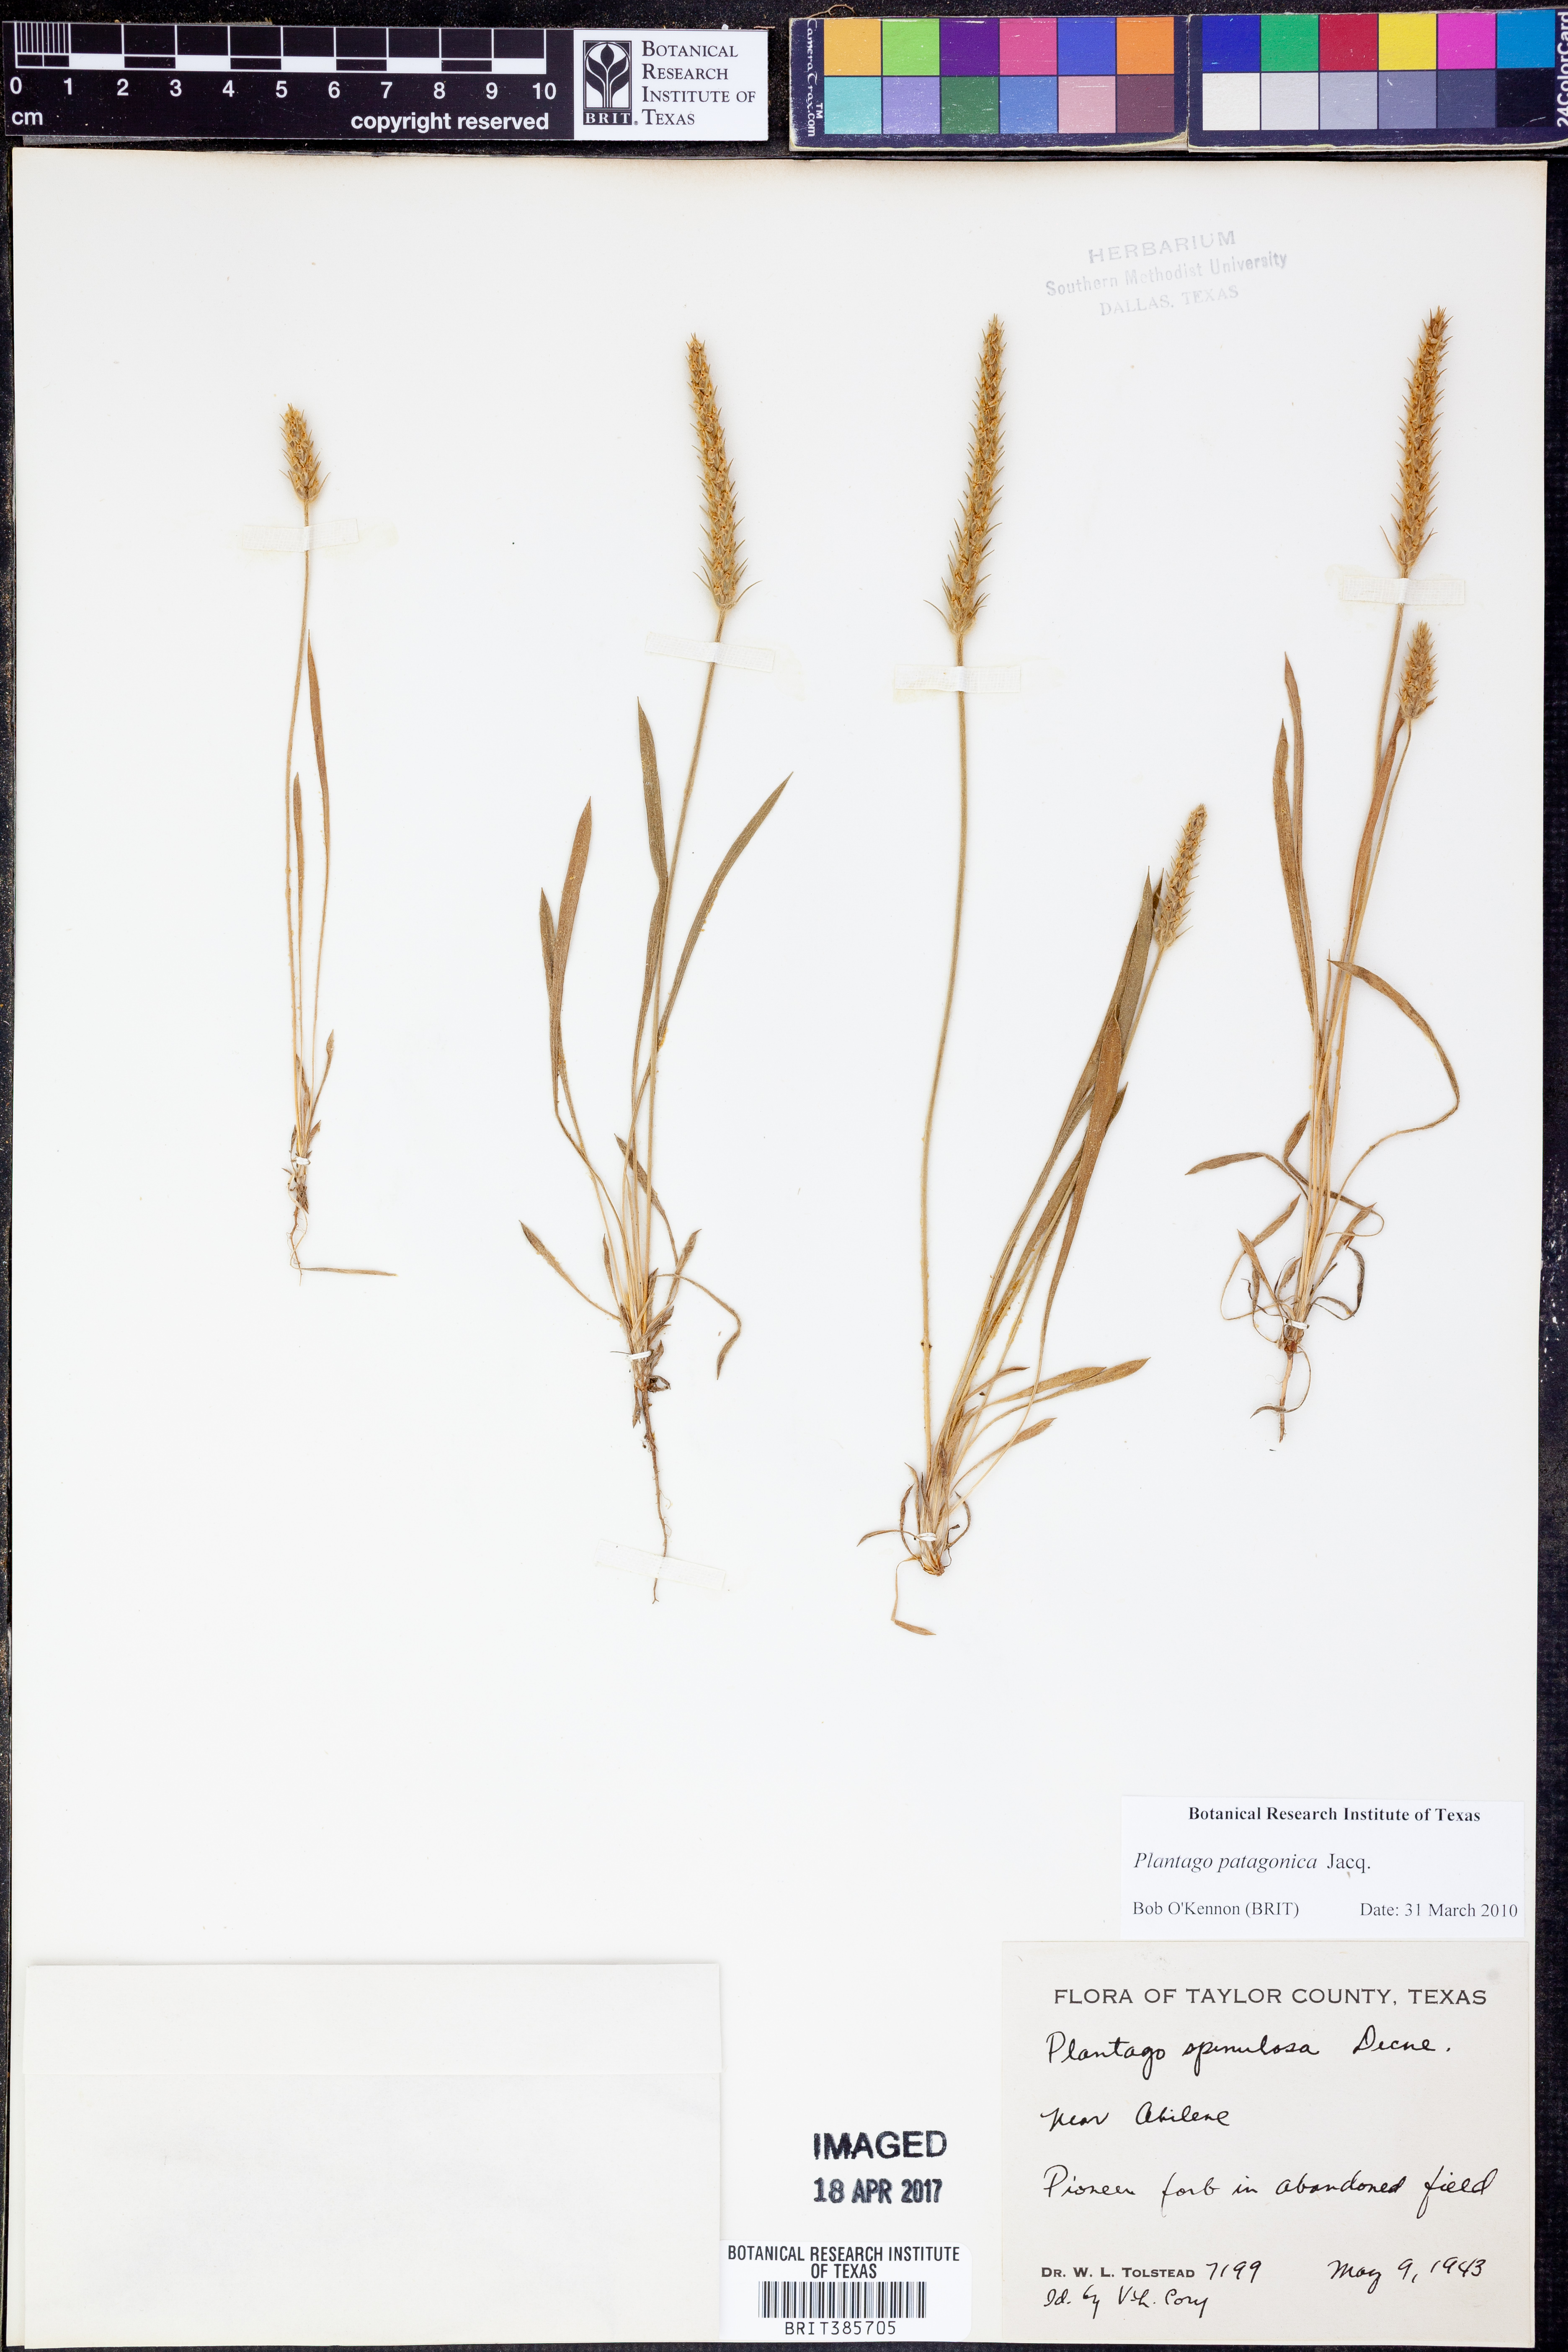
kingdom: Plantae
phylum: Tracheophyta
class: Magnoliopsida
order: Lamiales
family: Plantaginaceae
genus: Plantago
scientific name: Plantago patagonica
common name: Patagonia indian-wheat
